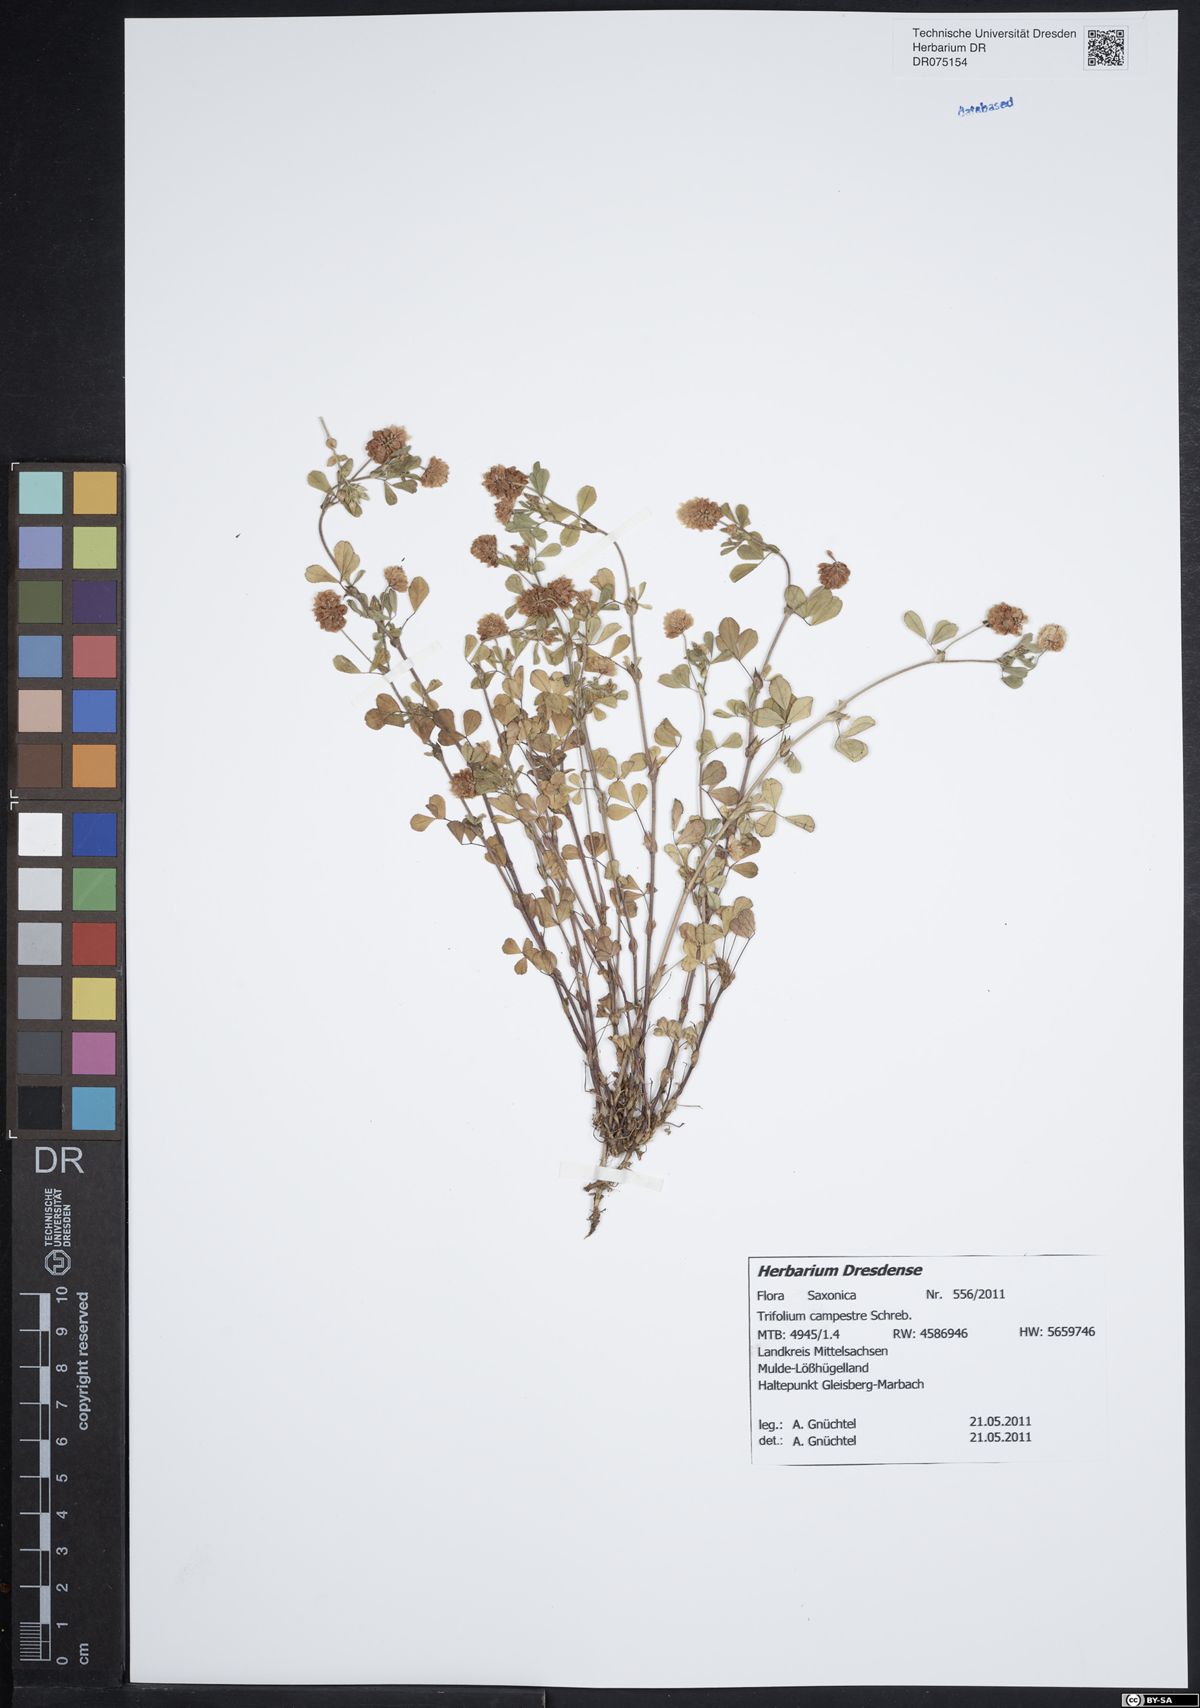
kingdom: Plantae
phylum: Tracheophyta
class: Magnoliopsida
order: Fabales
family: Fabaceae
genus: Trifolium
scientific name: Trifolium campestre
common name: Field clover
